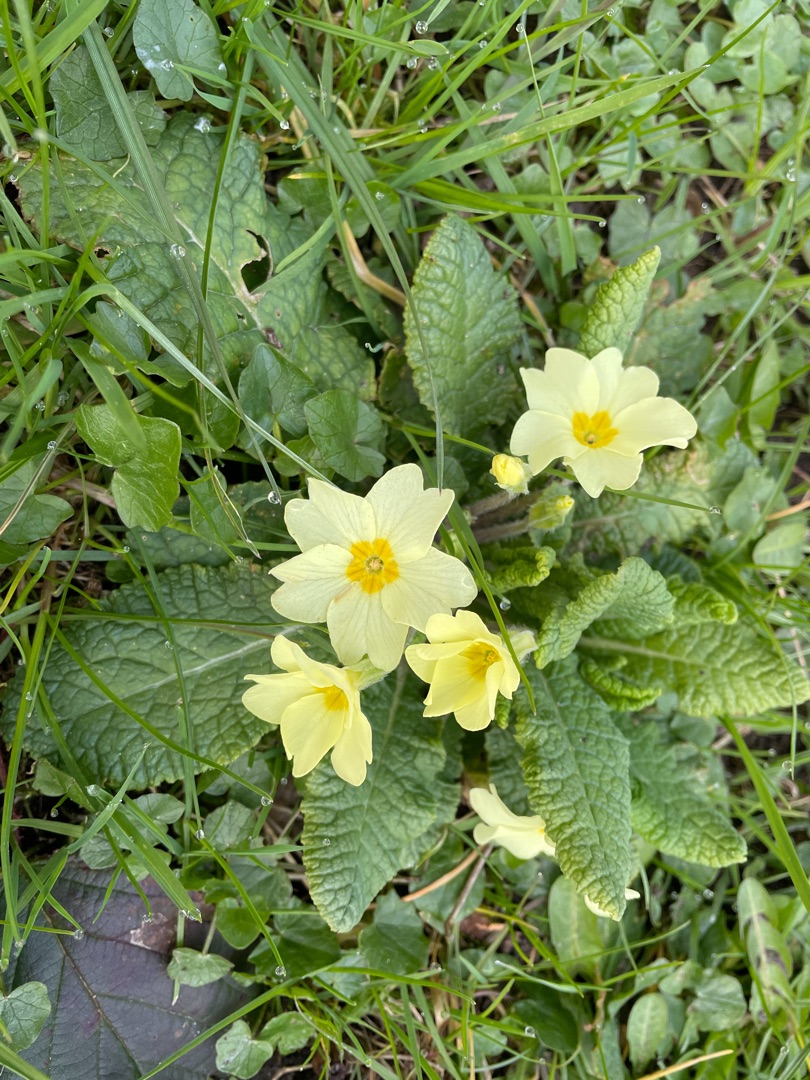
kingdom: Plantae
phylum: Tracheophyta
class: Magnoliopsida
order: Ericales
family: Primulaceae
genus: Primula
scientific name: Primula vulgaris
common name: Storblomstret kodriver
